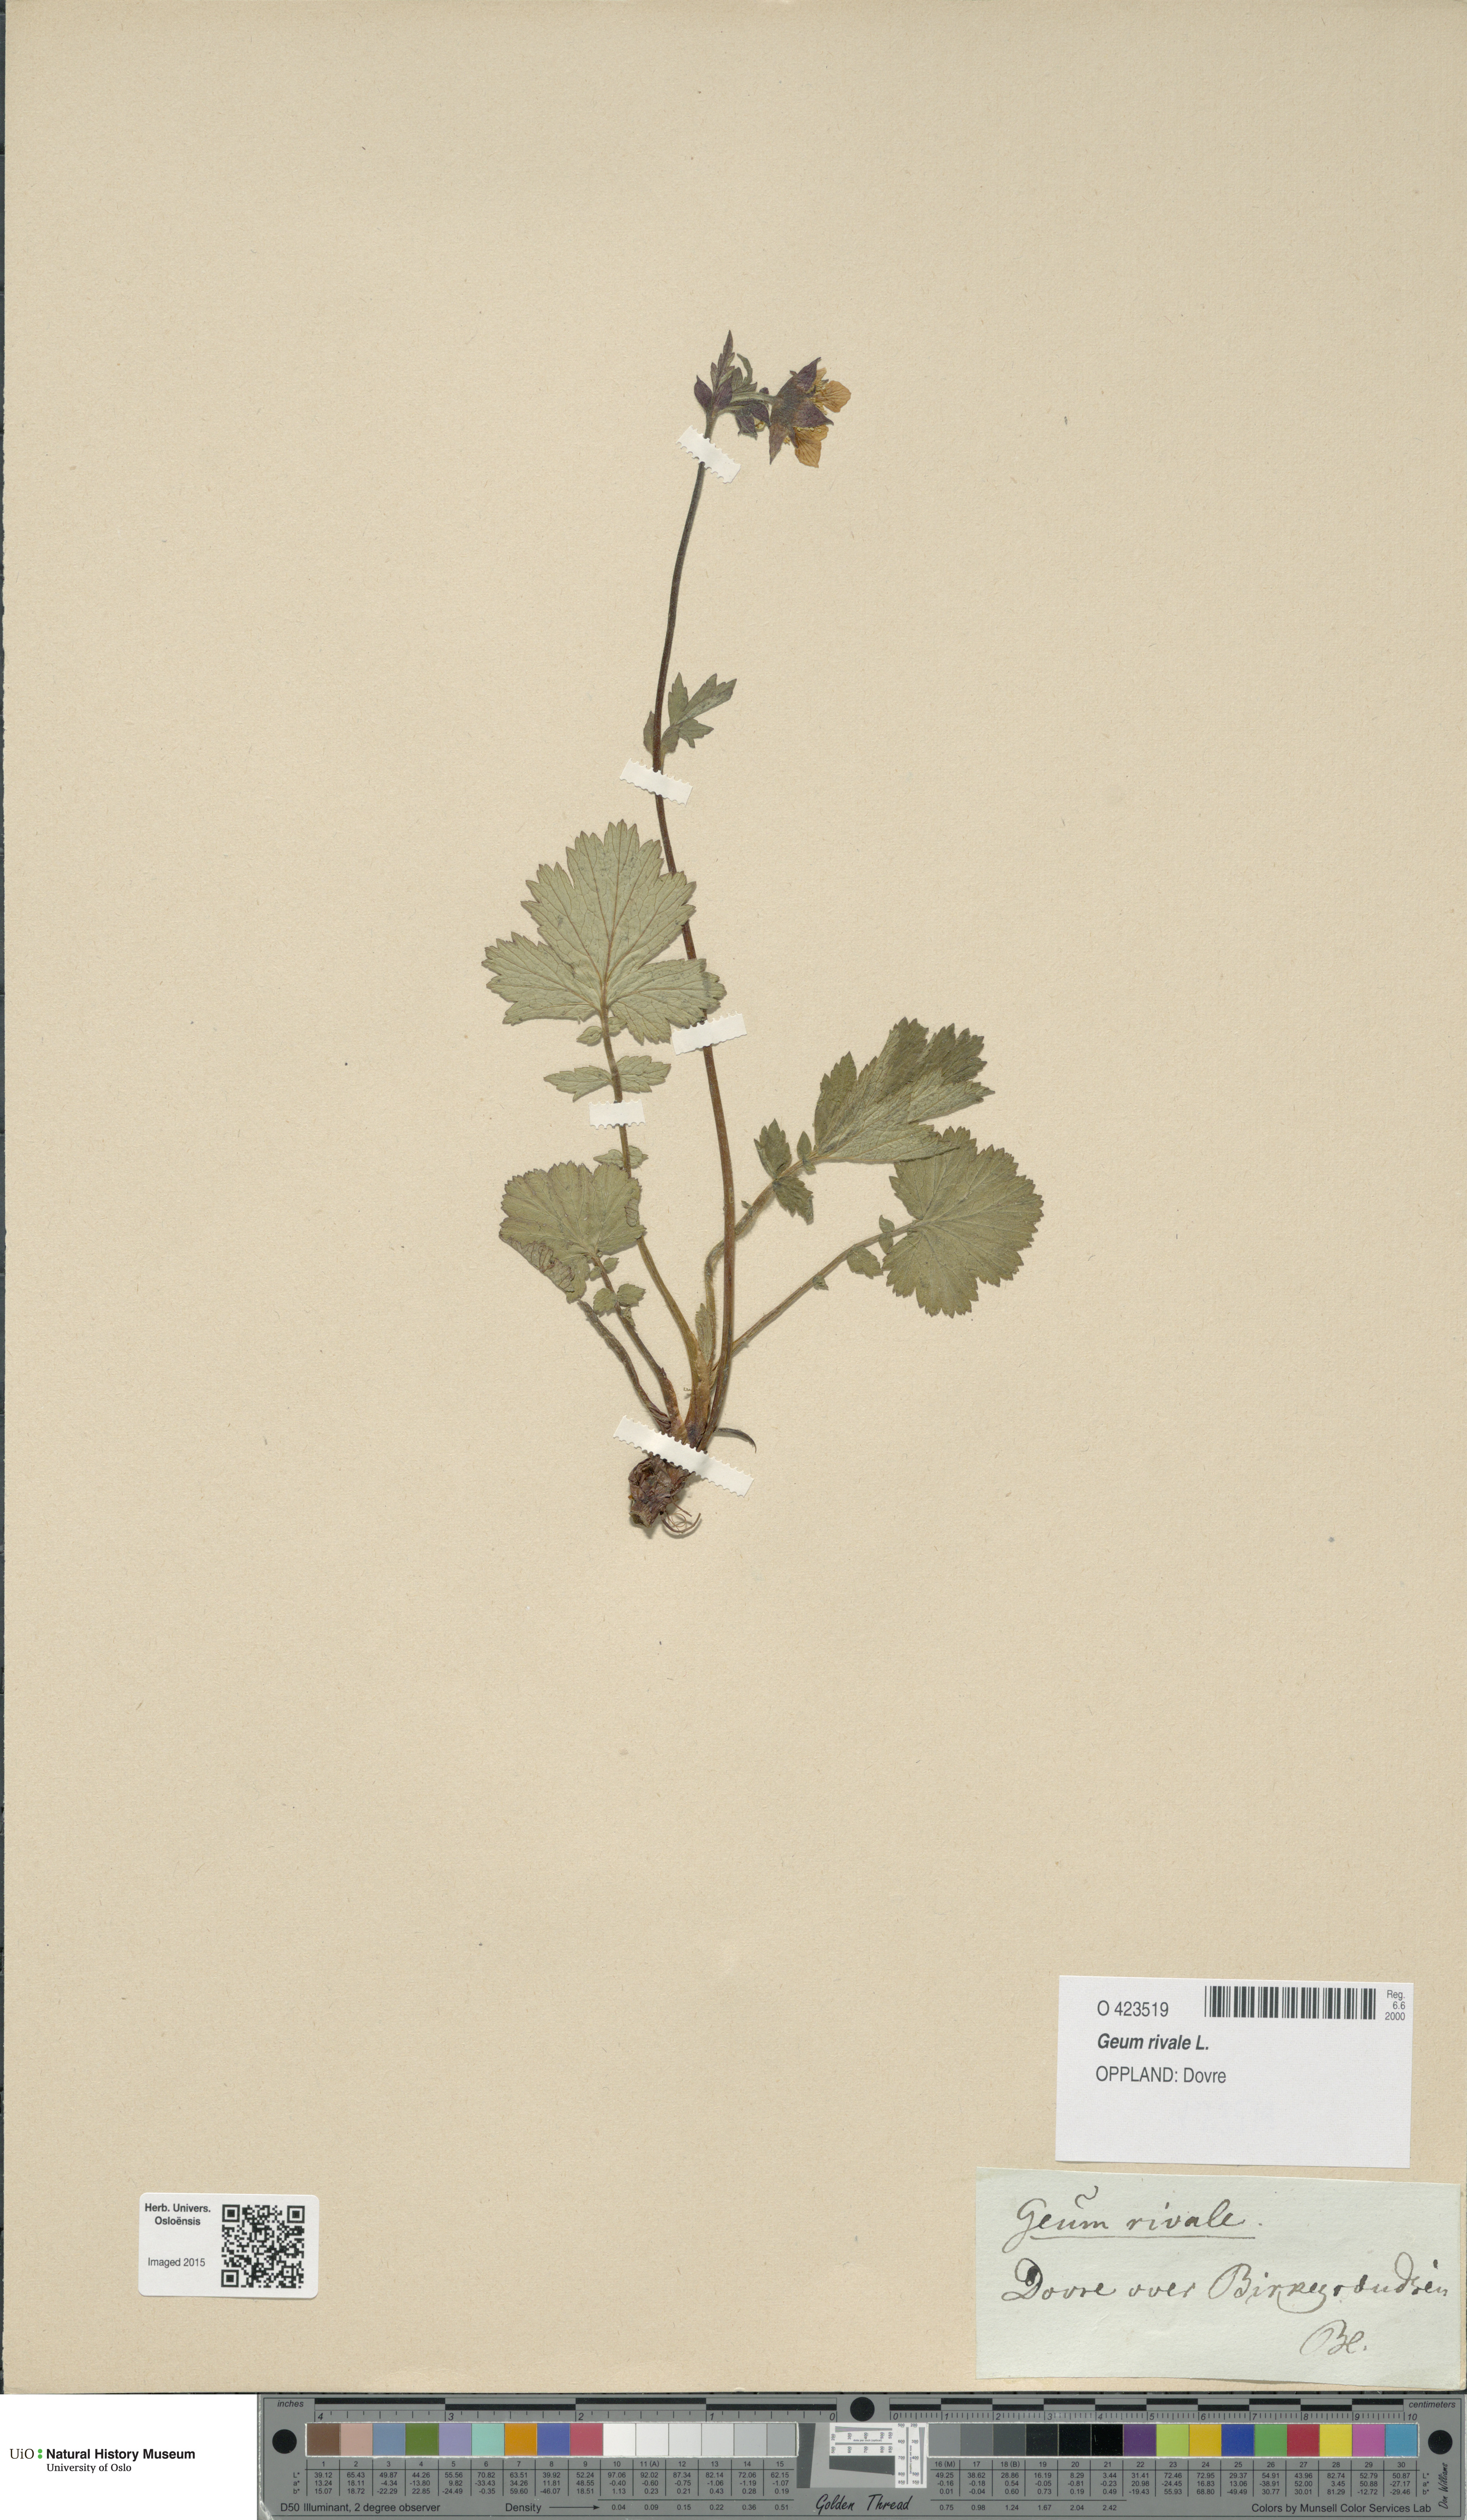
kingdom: Plantae
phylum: Tracheophyta
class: Magnoliopsida
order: Rosales
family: Rosaceae
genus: Geum
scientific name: Geum rivale
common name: Water avens
